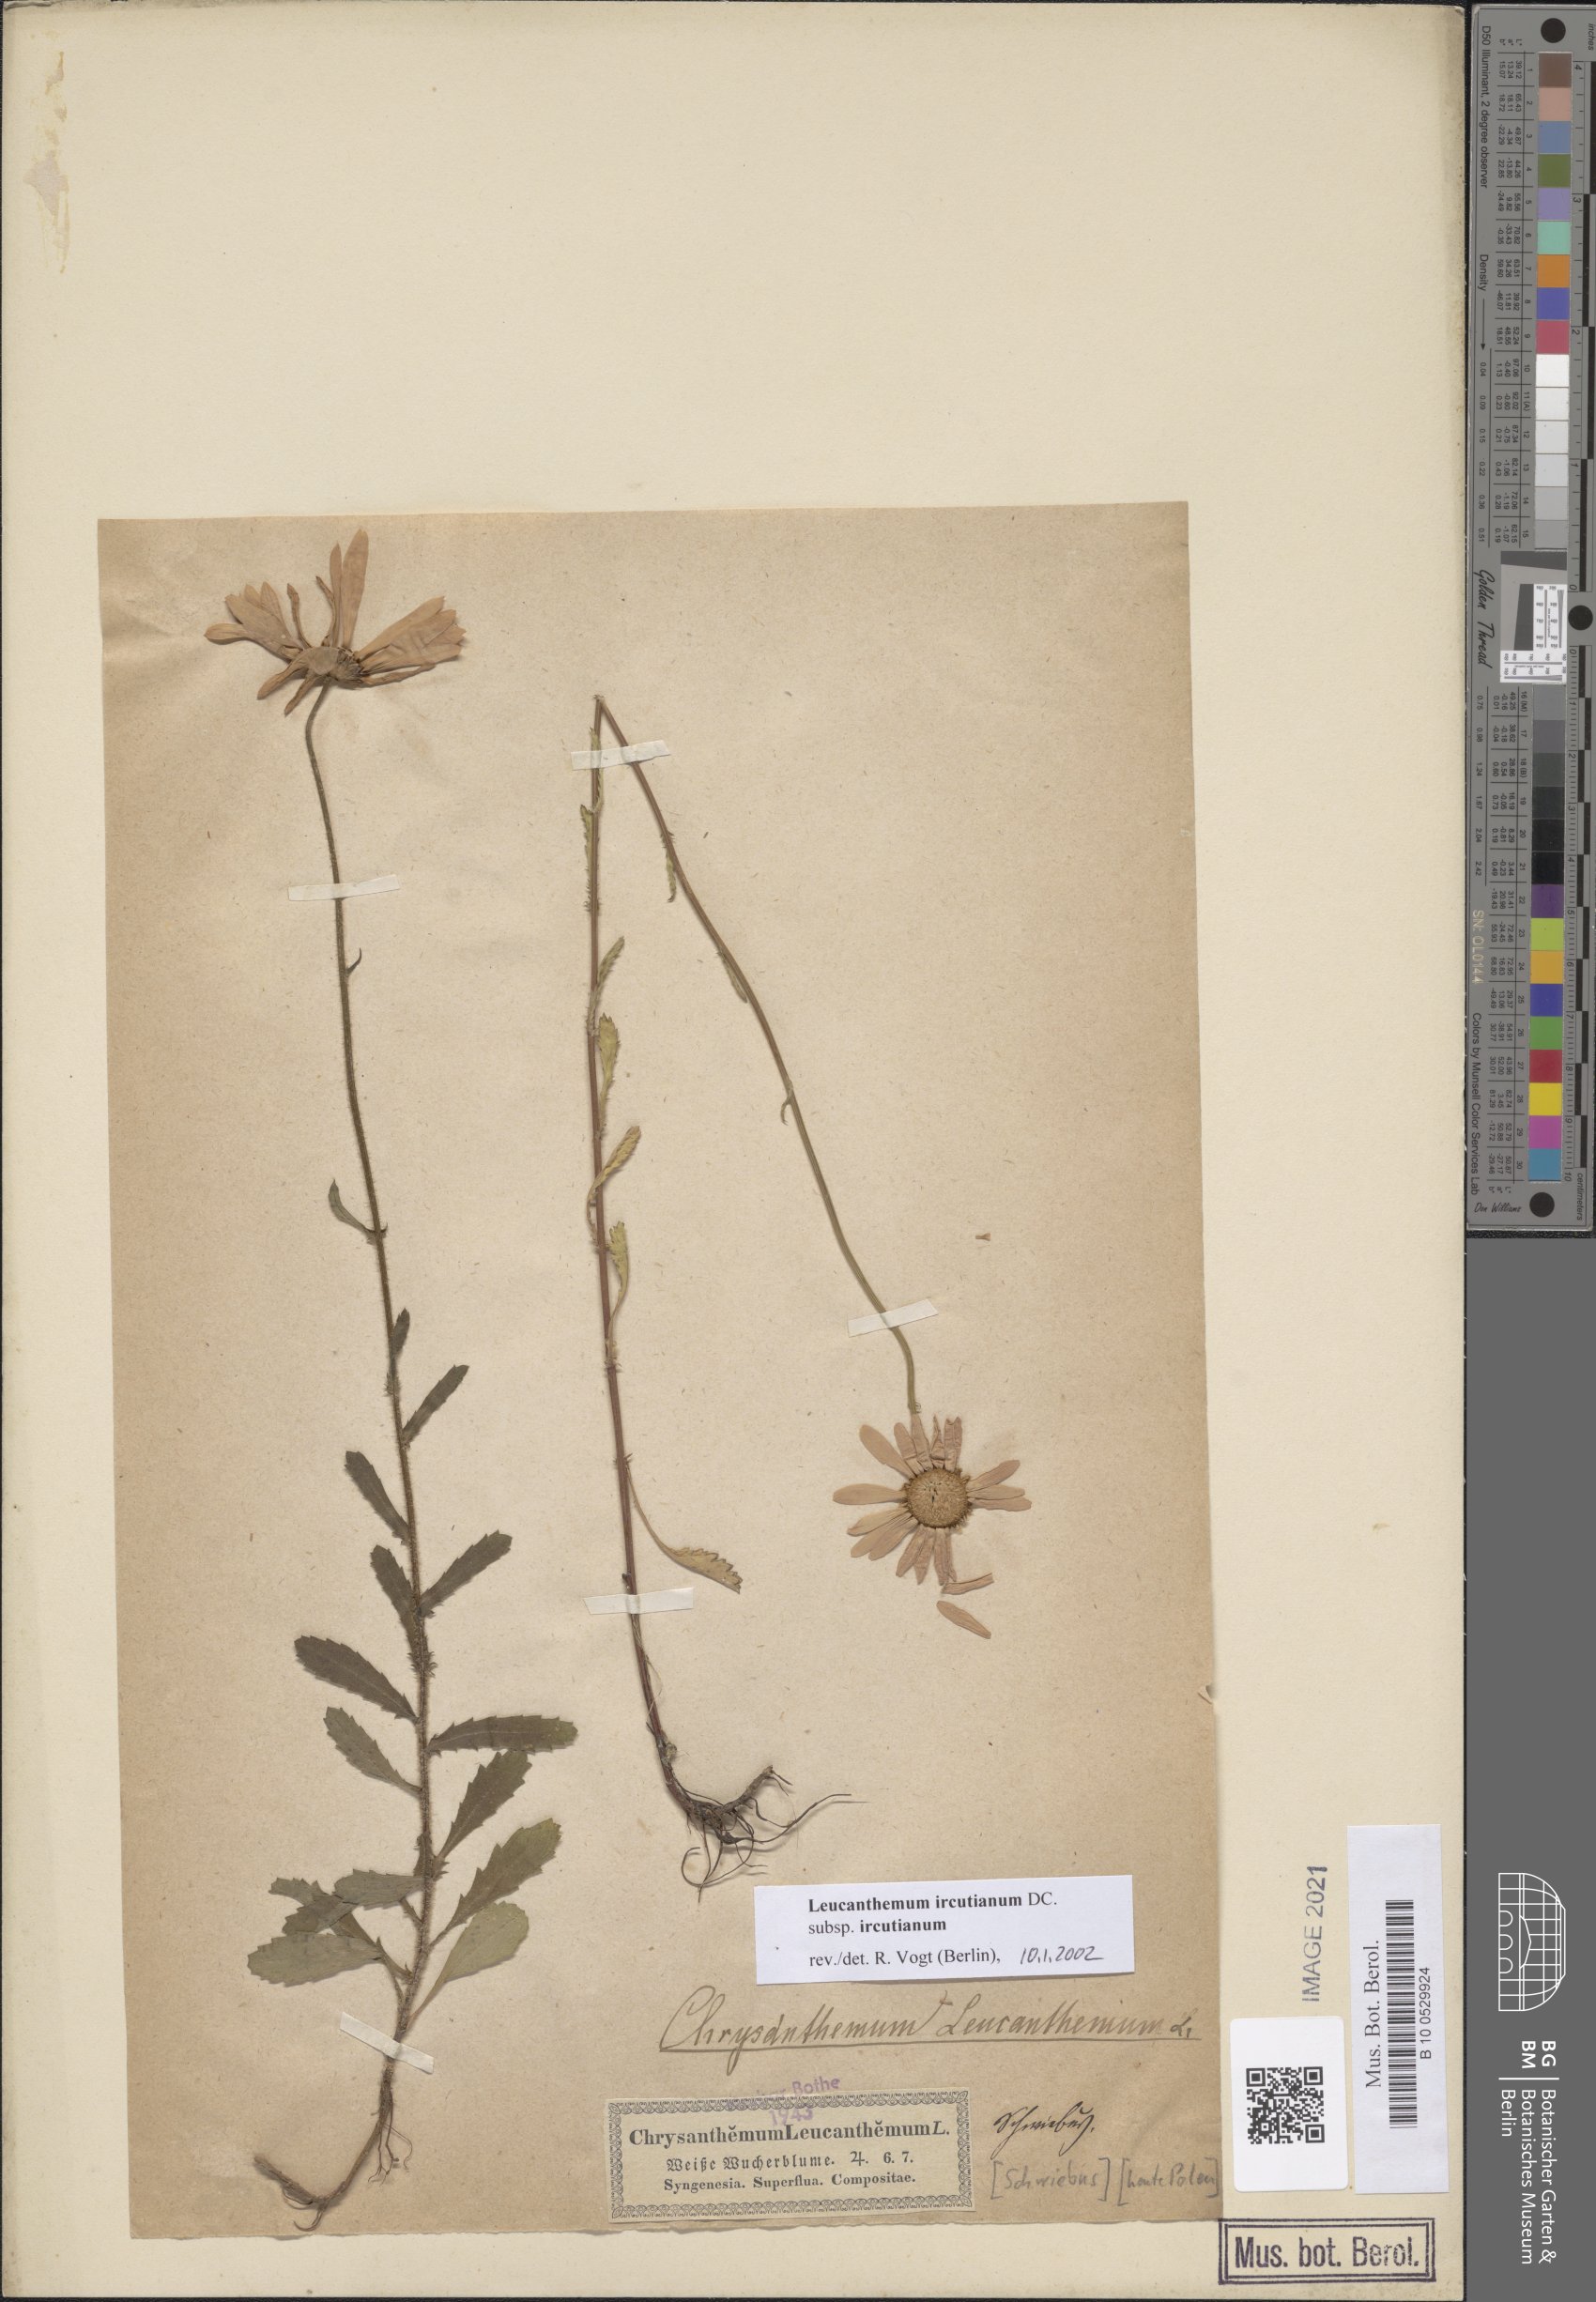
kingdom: Plantae
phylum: Tracheophyta
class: Magnoliopsida
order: Asterales
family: Asteraceae
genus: Leucanthemum
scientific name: Leucanthemum ircutianum
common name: Daisy
